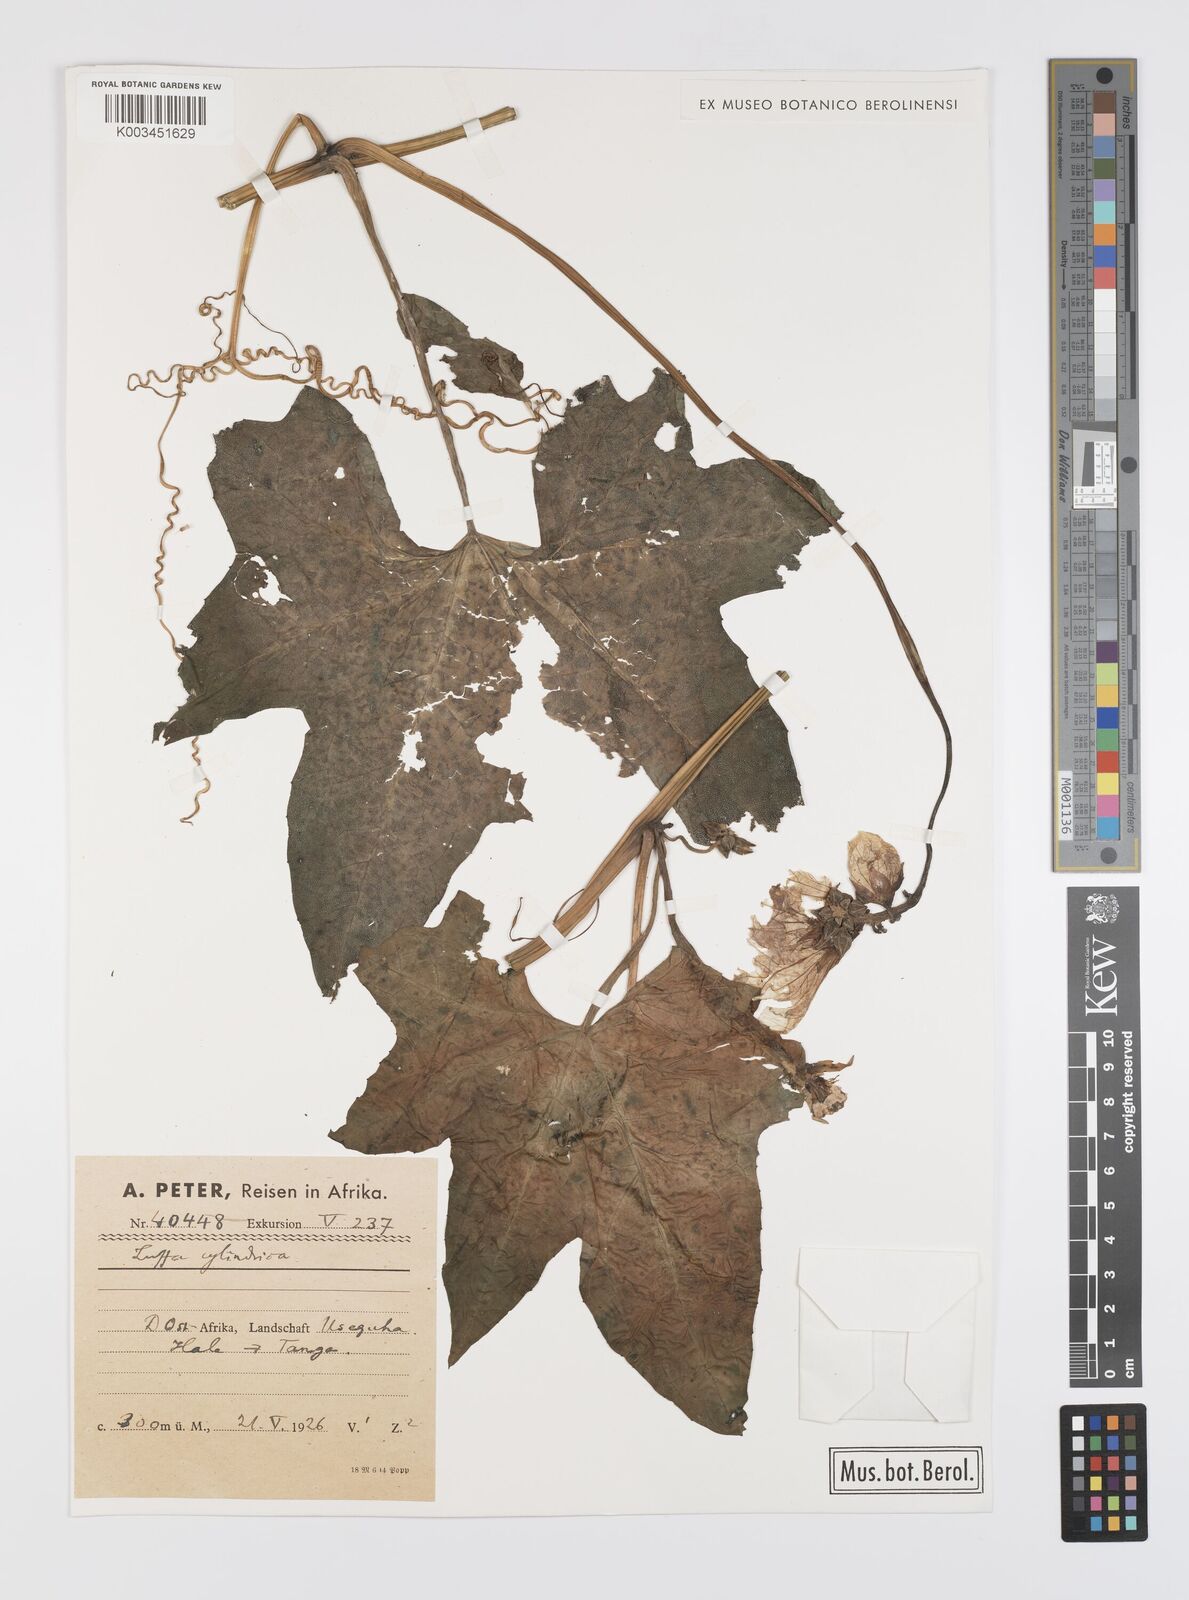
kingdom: Plantae
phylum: Tracheophyta
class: Magnoliopsida
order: Cucurbitales
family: Cucurbitaceae
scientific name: Cucurbitaceae
